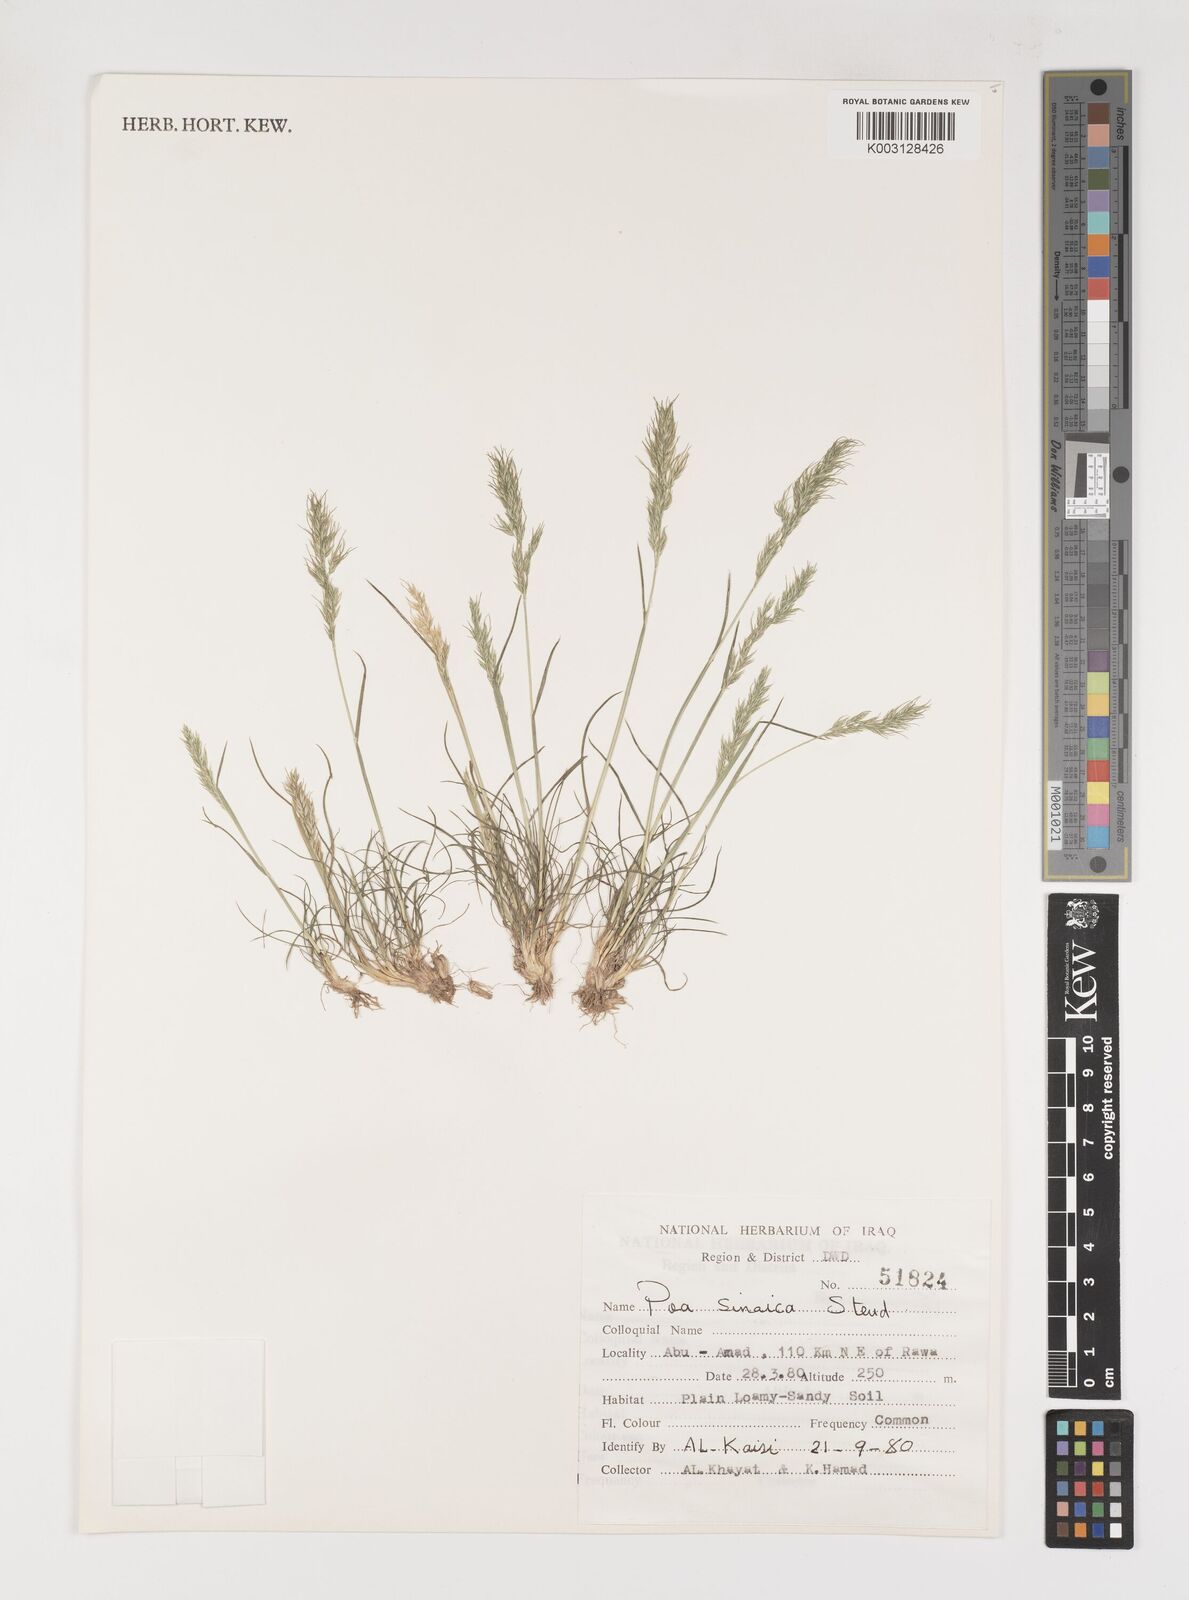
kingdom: Plantae
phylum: Tracheophyta
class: Liliopsida
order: Poales
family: Poaceae
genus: Poa
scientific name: Poa sinaica
